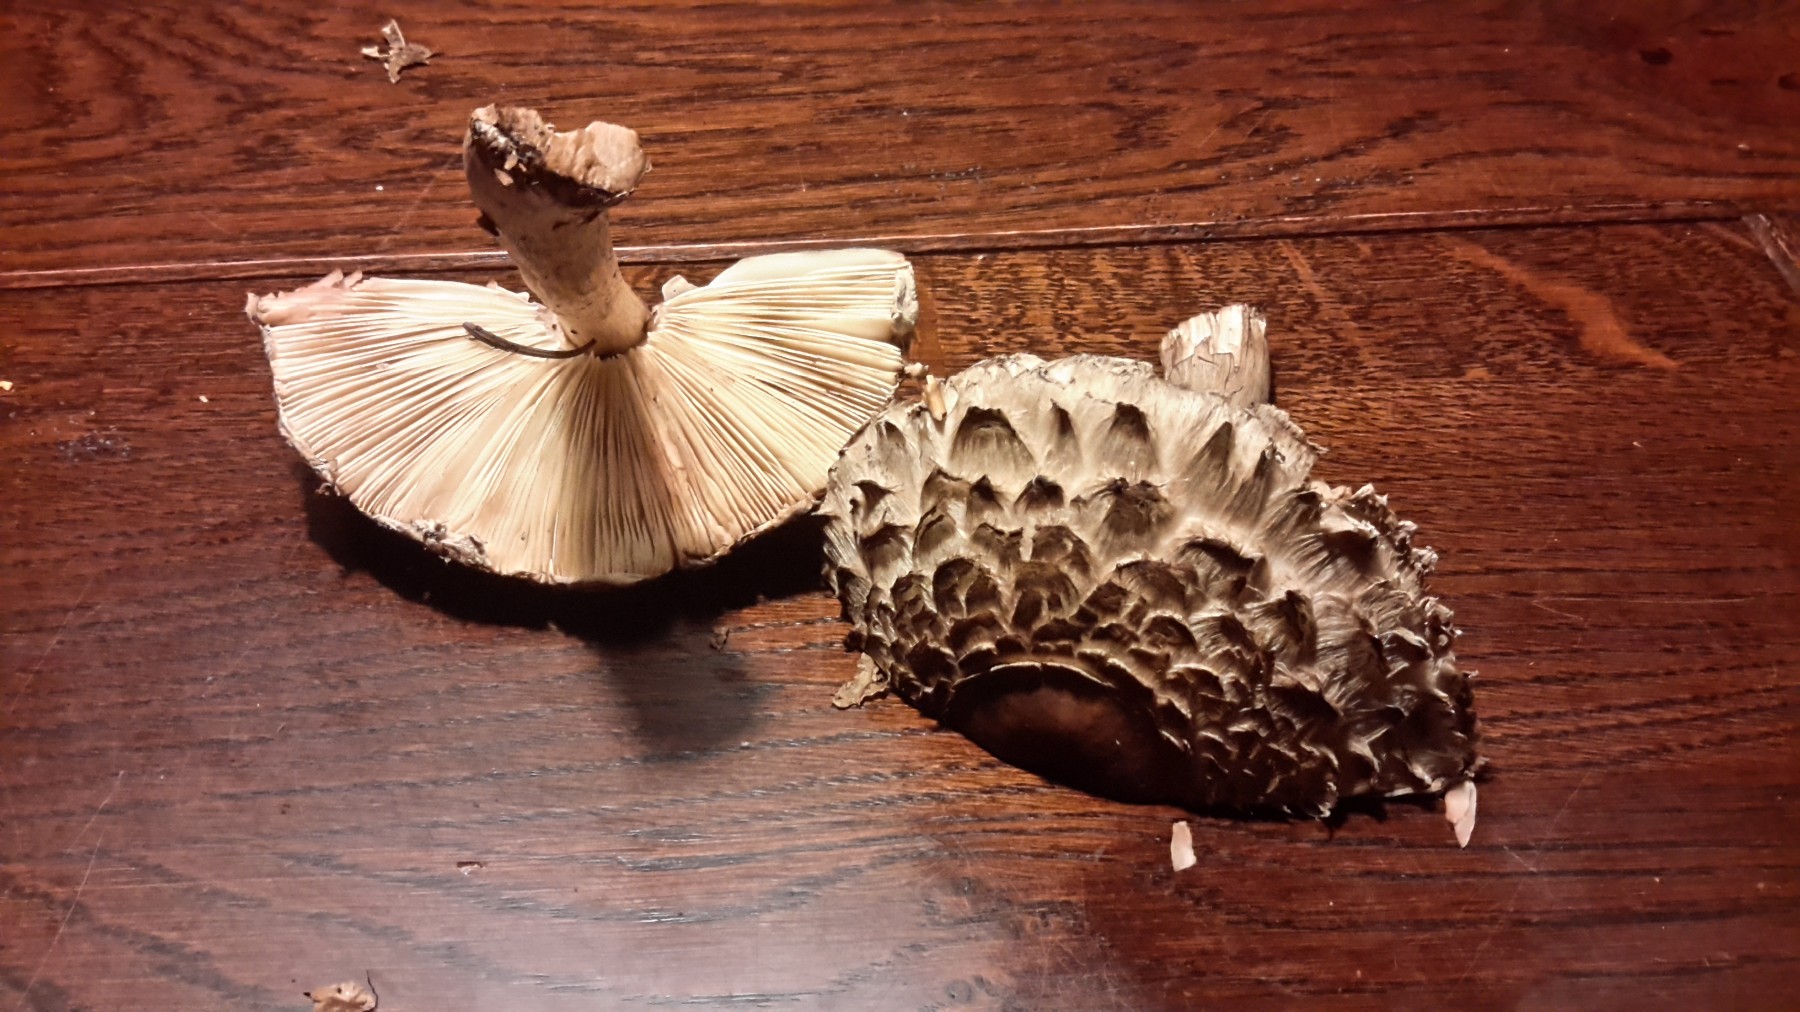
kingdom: Fungi
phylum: Basidiomycota
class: Agaricomycetes
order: Agaricales
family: Agaricaceae
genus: Chlorophyllum
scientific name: Chlorophyllum olivieri
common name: almindelig rabarberhat
